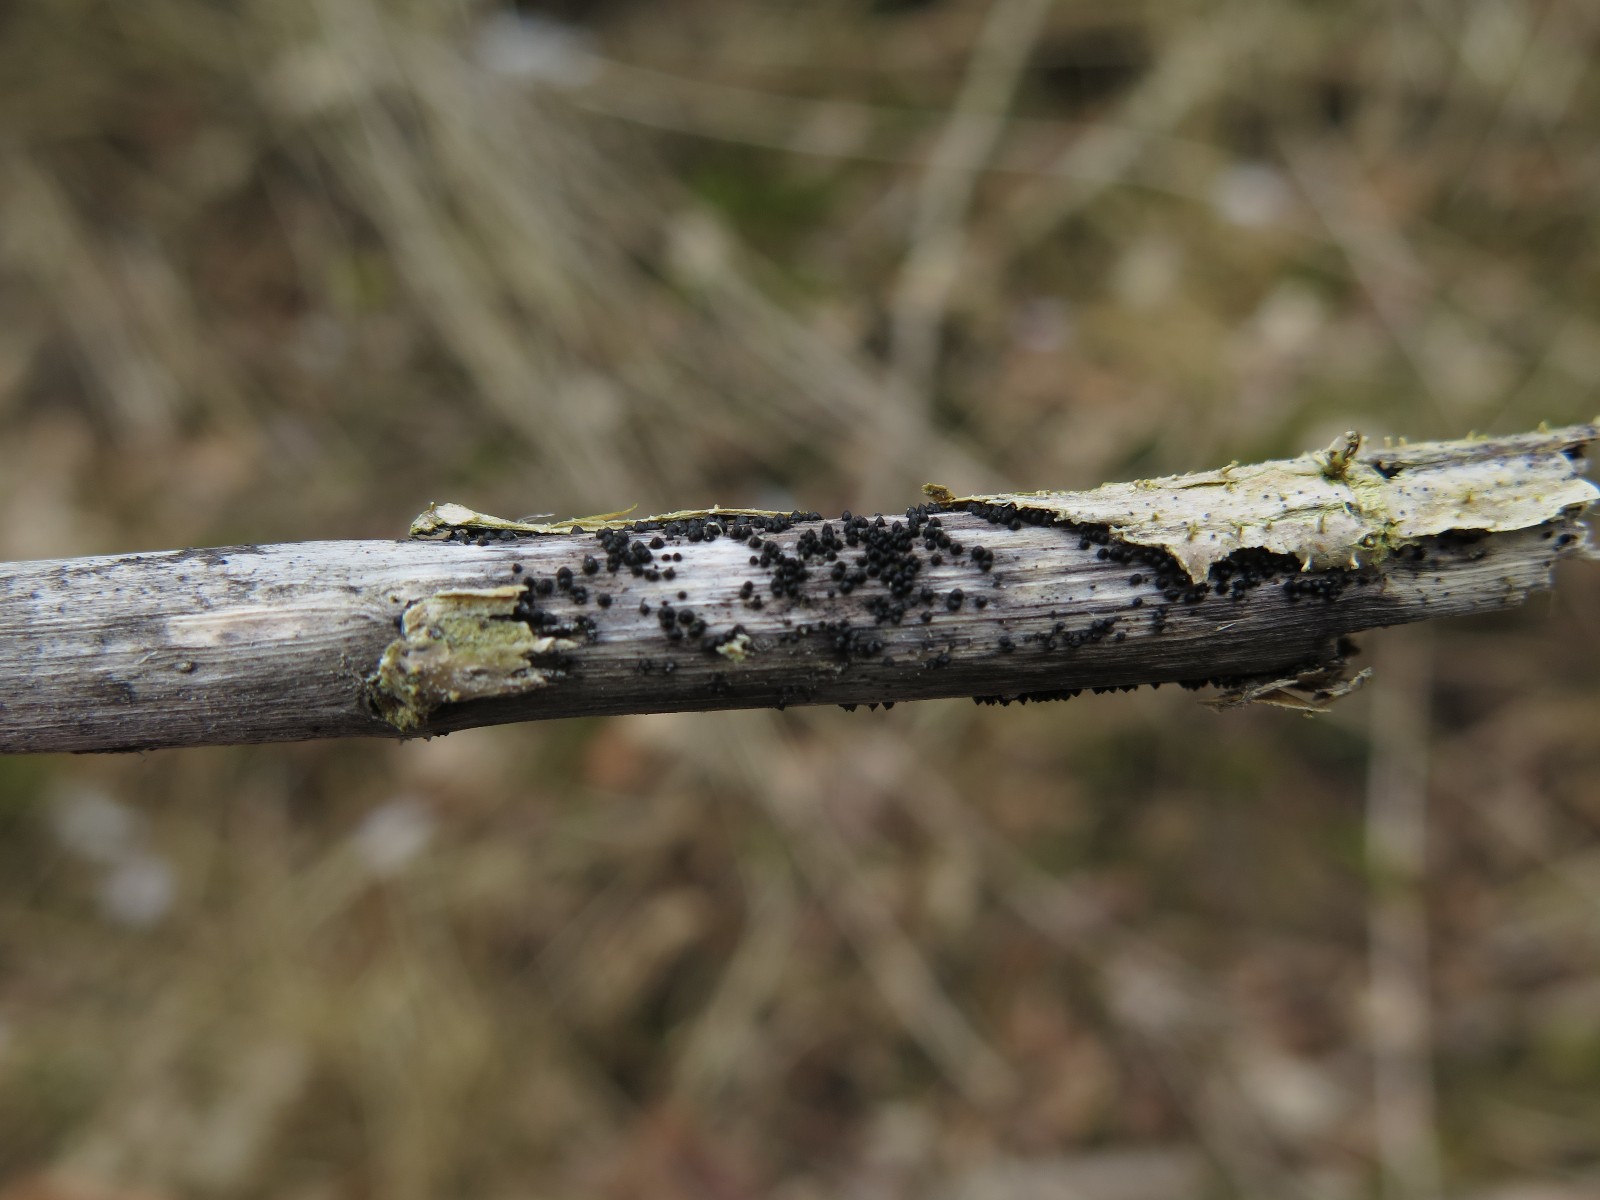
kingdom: Fungi
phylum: Ascomycota
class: Dothideomycetes
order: Pleosporales
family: Leptosphaeriaceae
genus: Leptosphaeria
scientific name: Leptosphaeria acuta
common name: spids kulkegle
